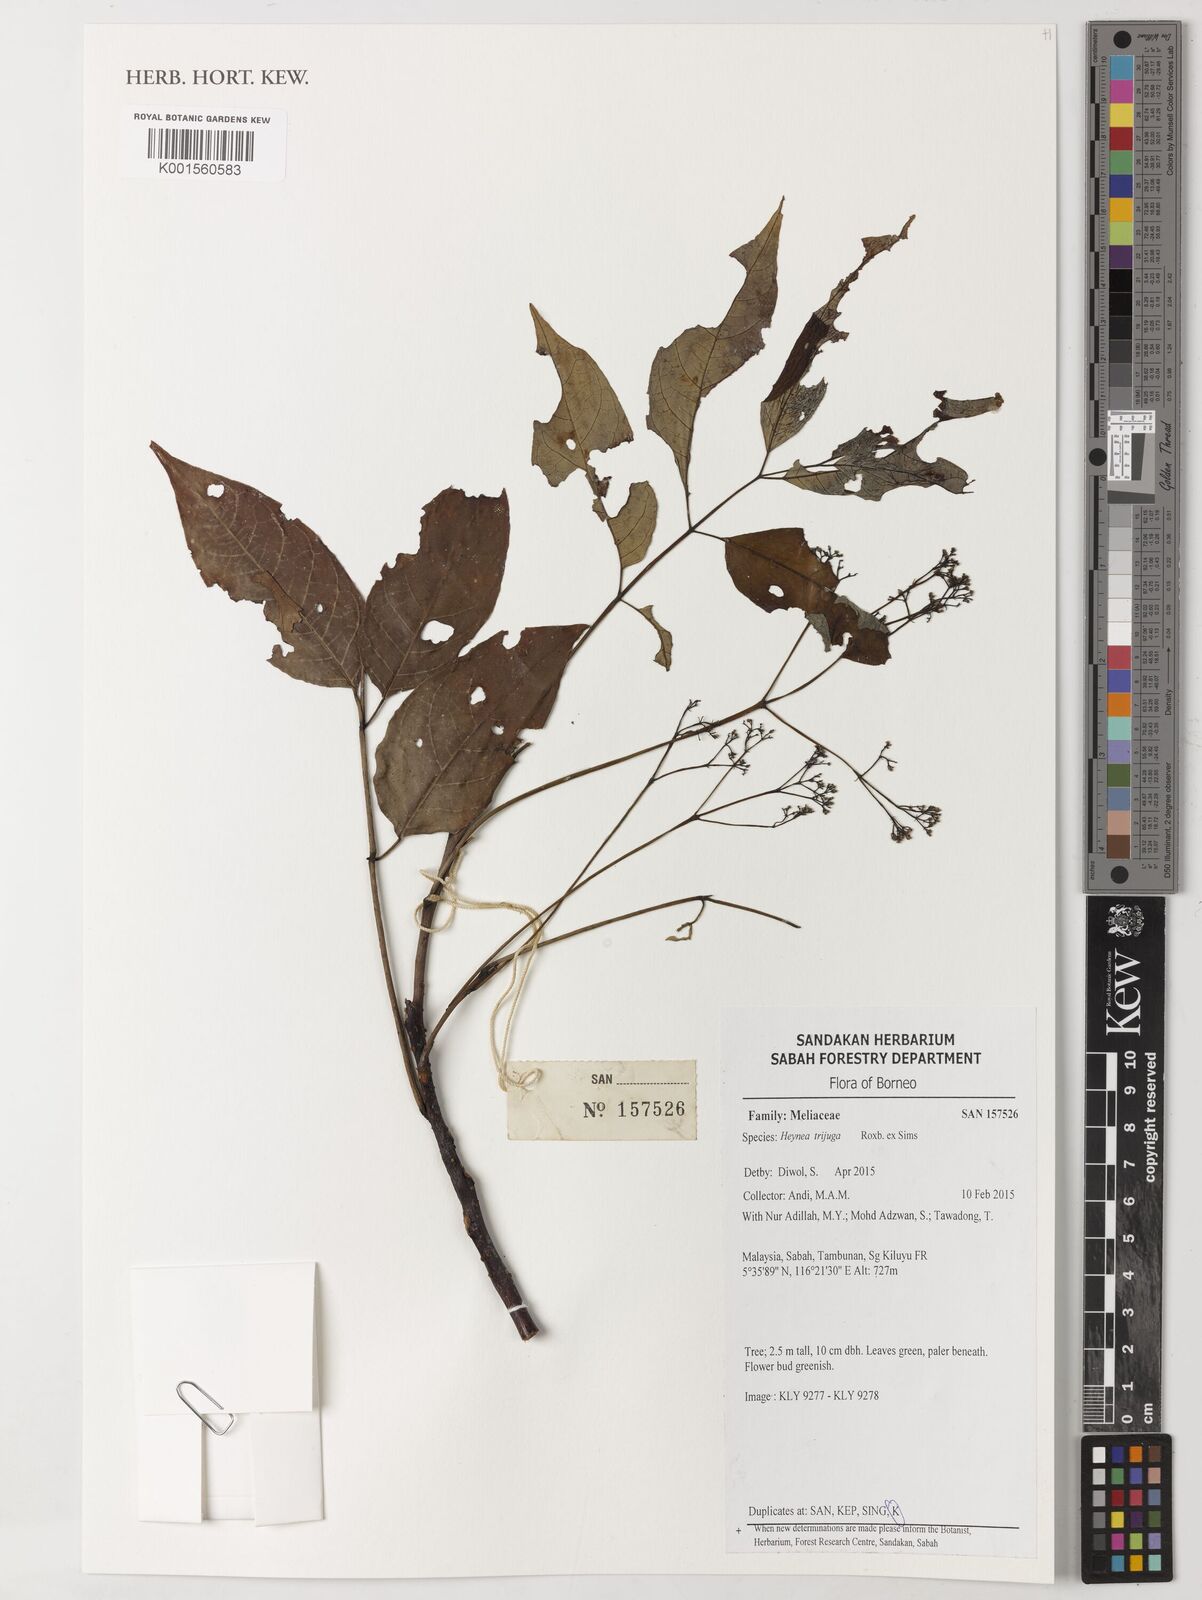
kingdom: Plantae
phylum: Tracheophyta
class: Magnoliopsida
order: Sapindales
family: Meliaceae
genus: Heynea
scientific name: Heynea trijuga
